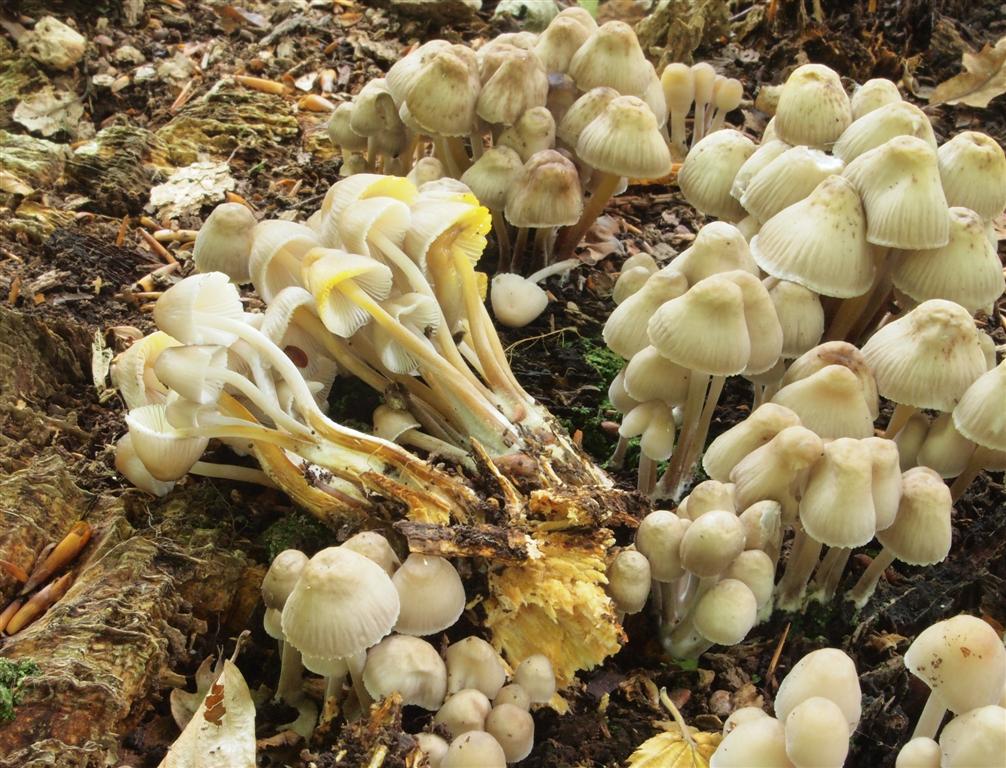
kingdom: Fungi
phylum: Basidiomycota
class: Agaricomycetes
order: Agaricales
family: Mycenaceae
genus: Mycena
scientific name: Mycena inclinata
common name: nikkende huesvamp
